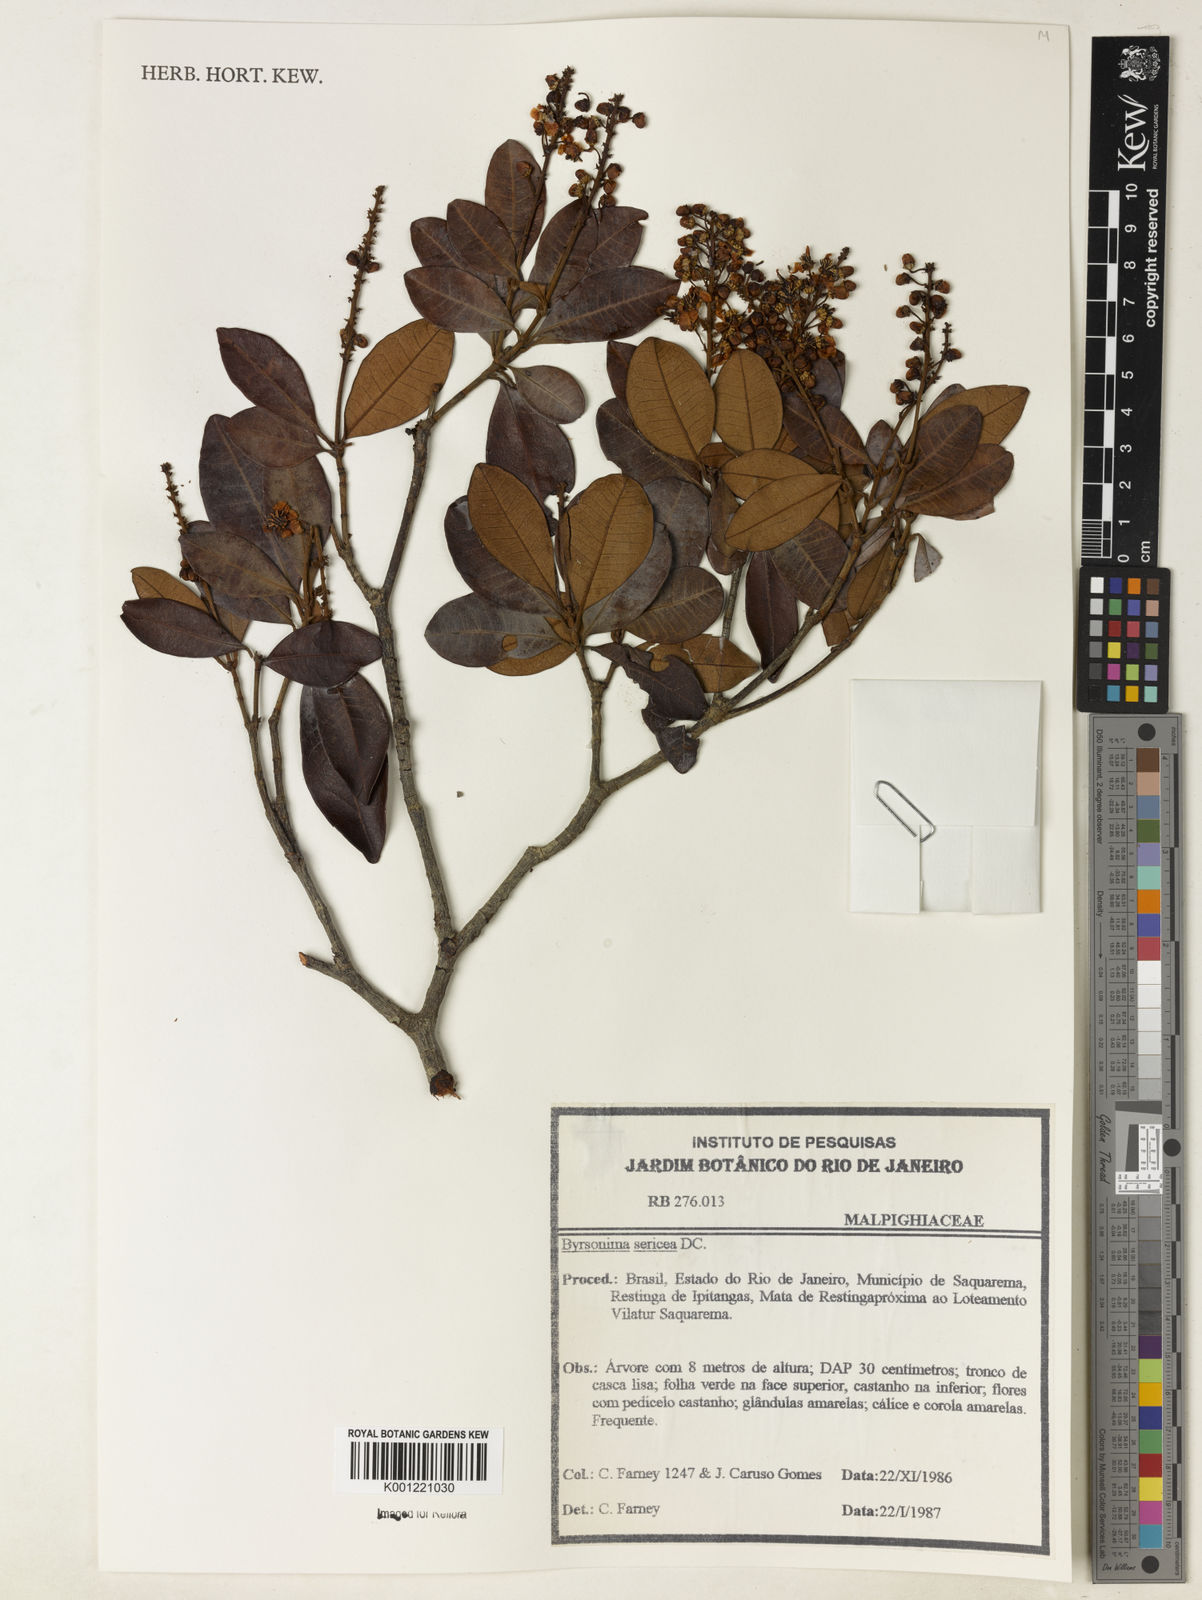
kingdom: Plantae
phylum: Tracheophyta
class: Magnoliopsida
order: Malpighiales
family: Malpighiaceae
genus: Byrsonima
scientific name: Byrsonima sericea
